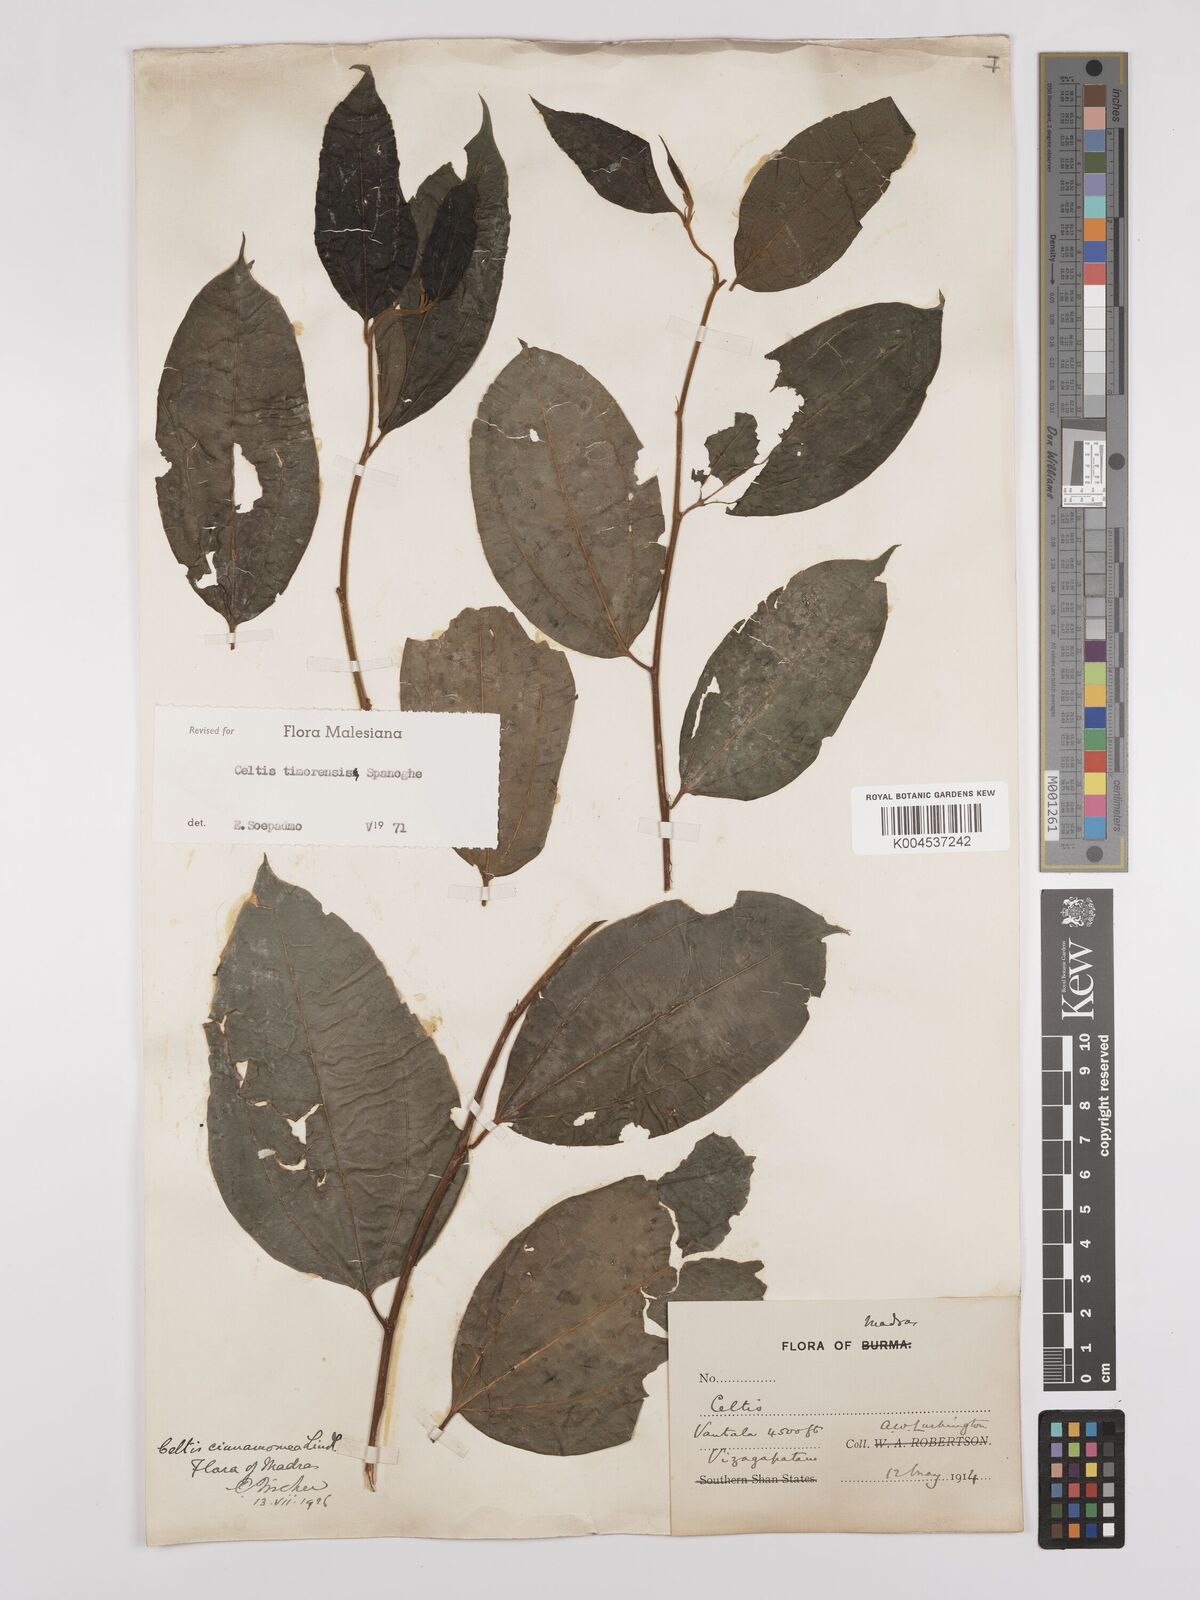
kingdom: Plantae
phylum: Tracheophyta
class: Magnoliopsida
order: Rosales
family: Cannabaceae
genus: Celtis
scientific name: Celtis timorensis
